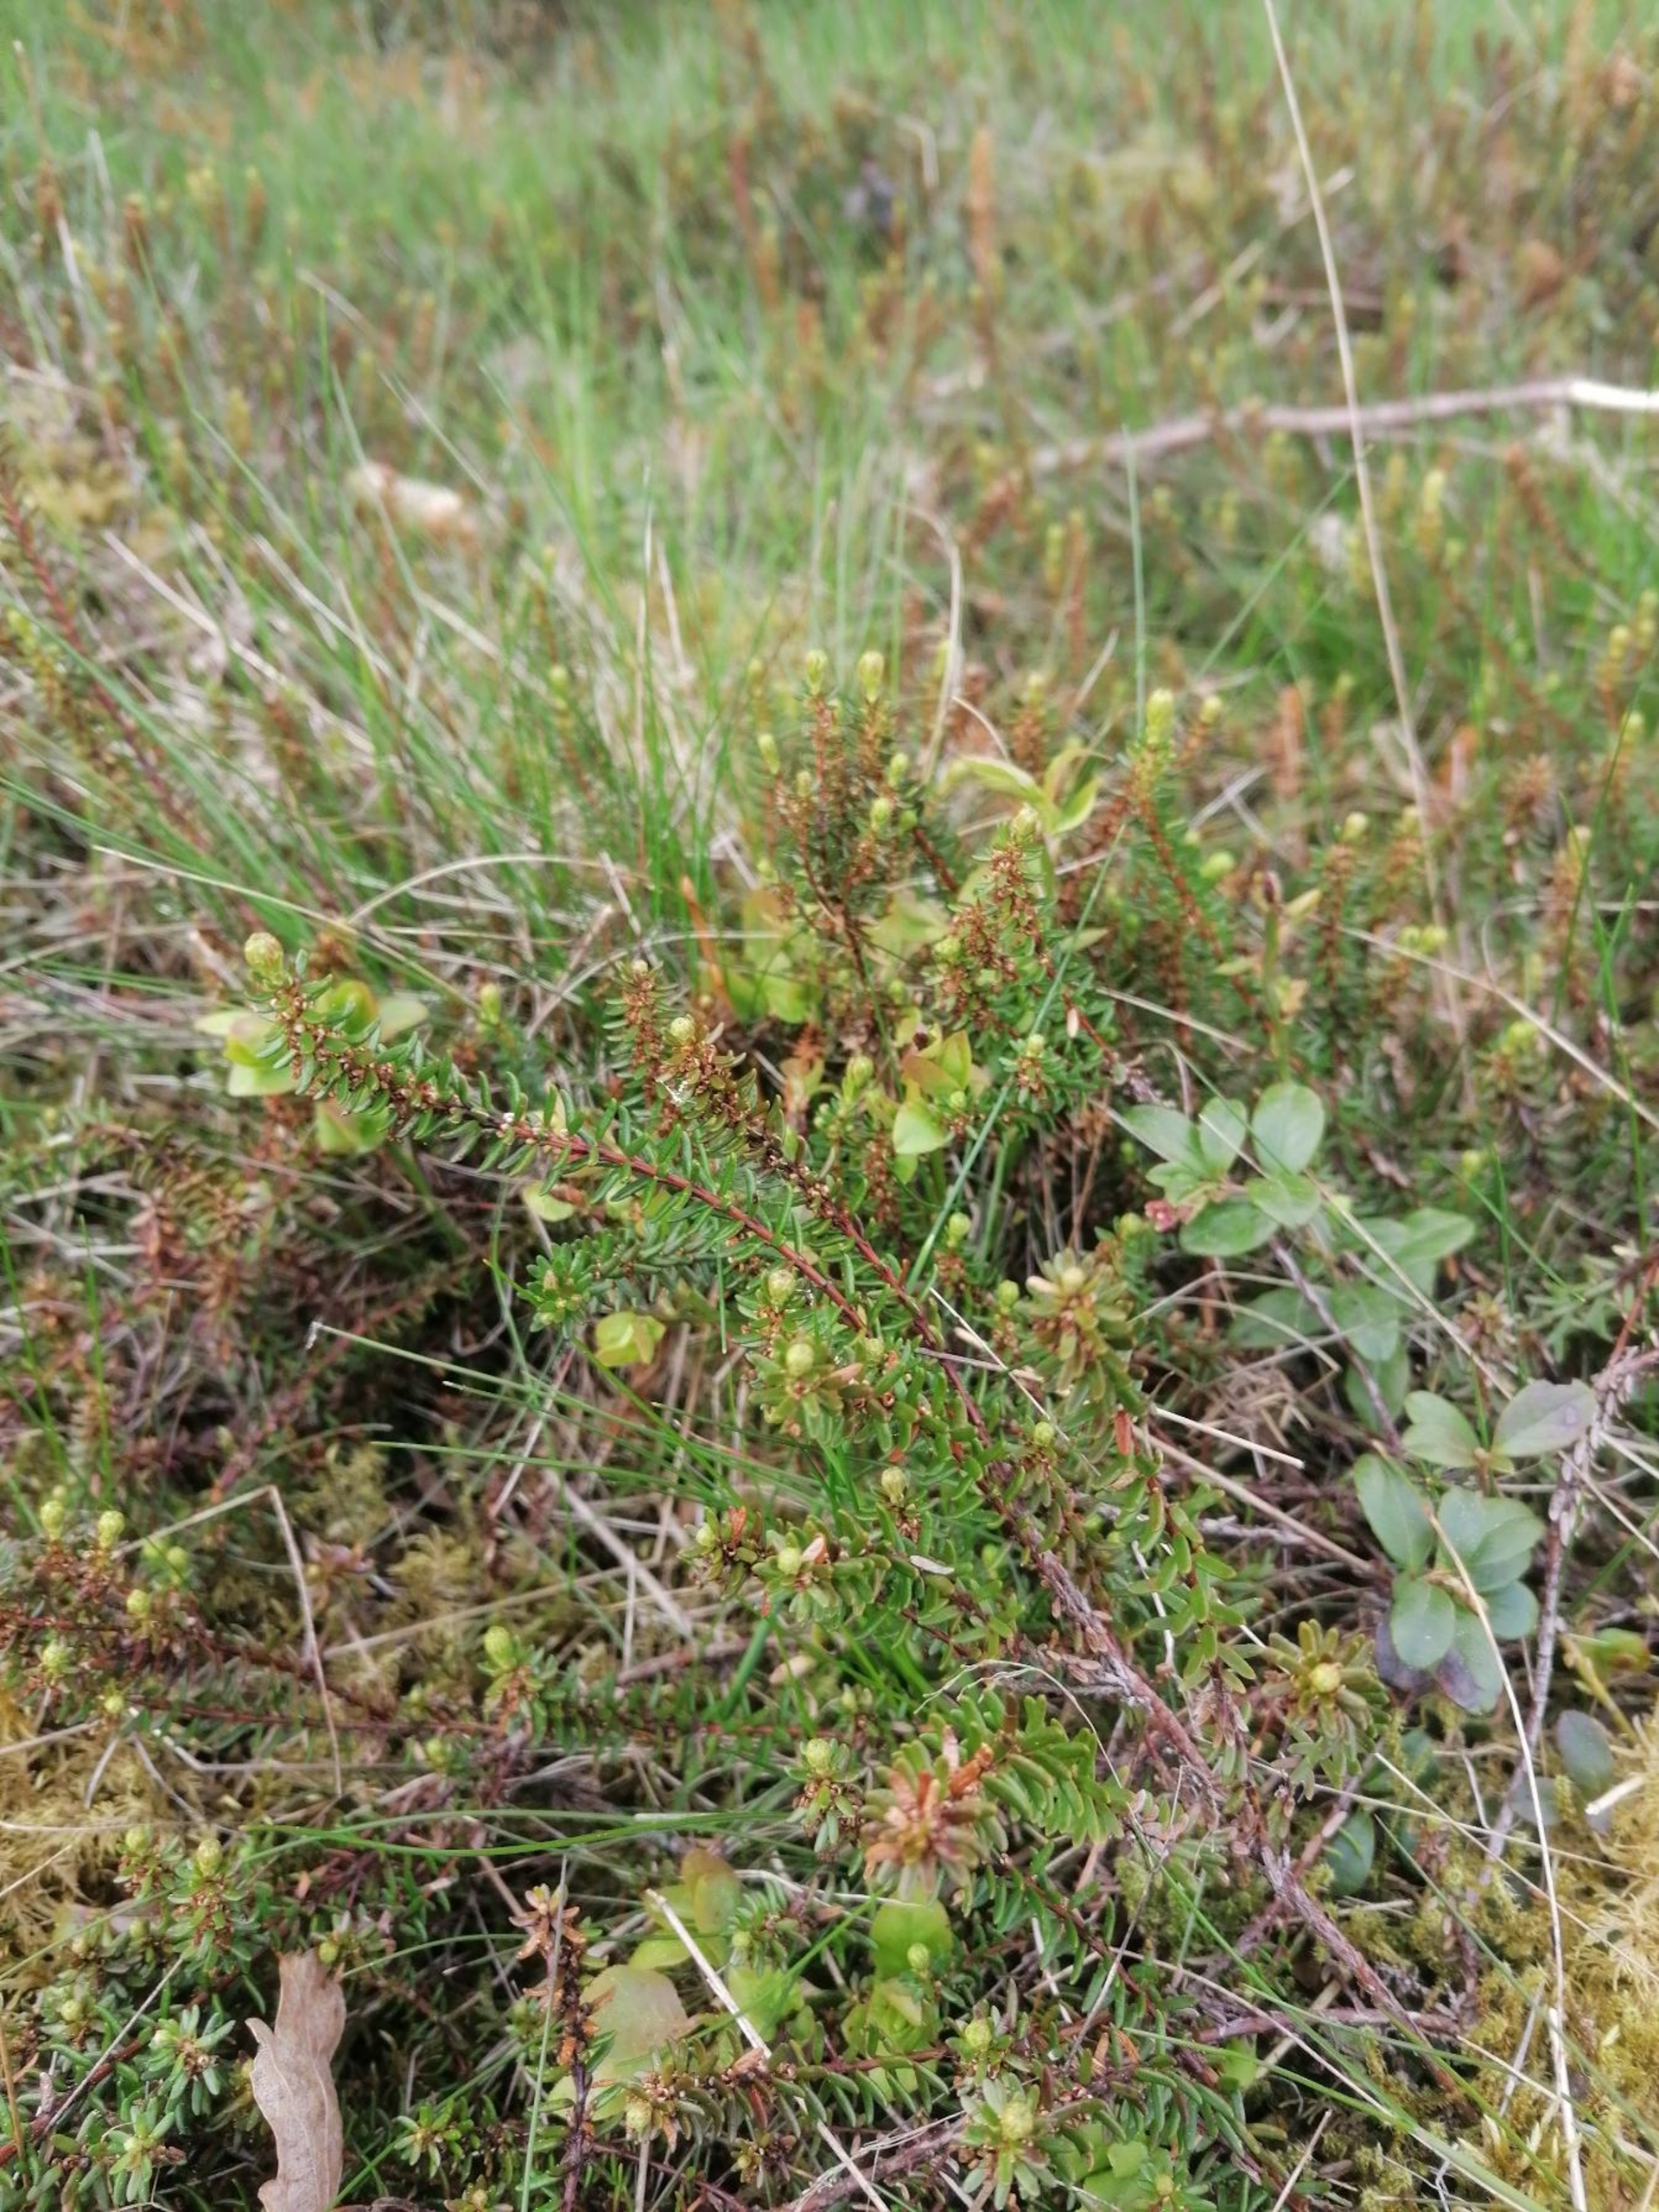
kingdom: Plantae
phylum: Tracheophyta
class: Magnoliopsida
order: Ericales
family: Ericaceae
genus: Empetrum
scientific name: Empetrum nigrum
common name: Revling
